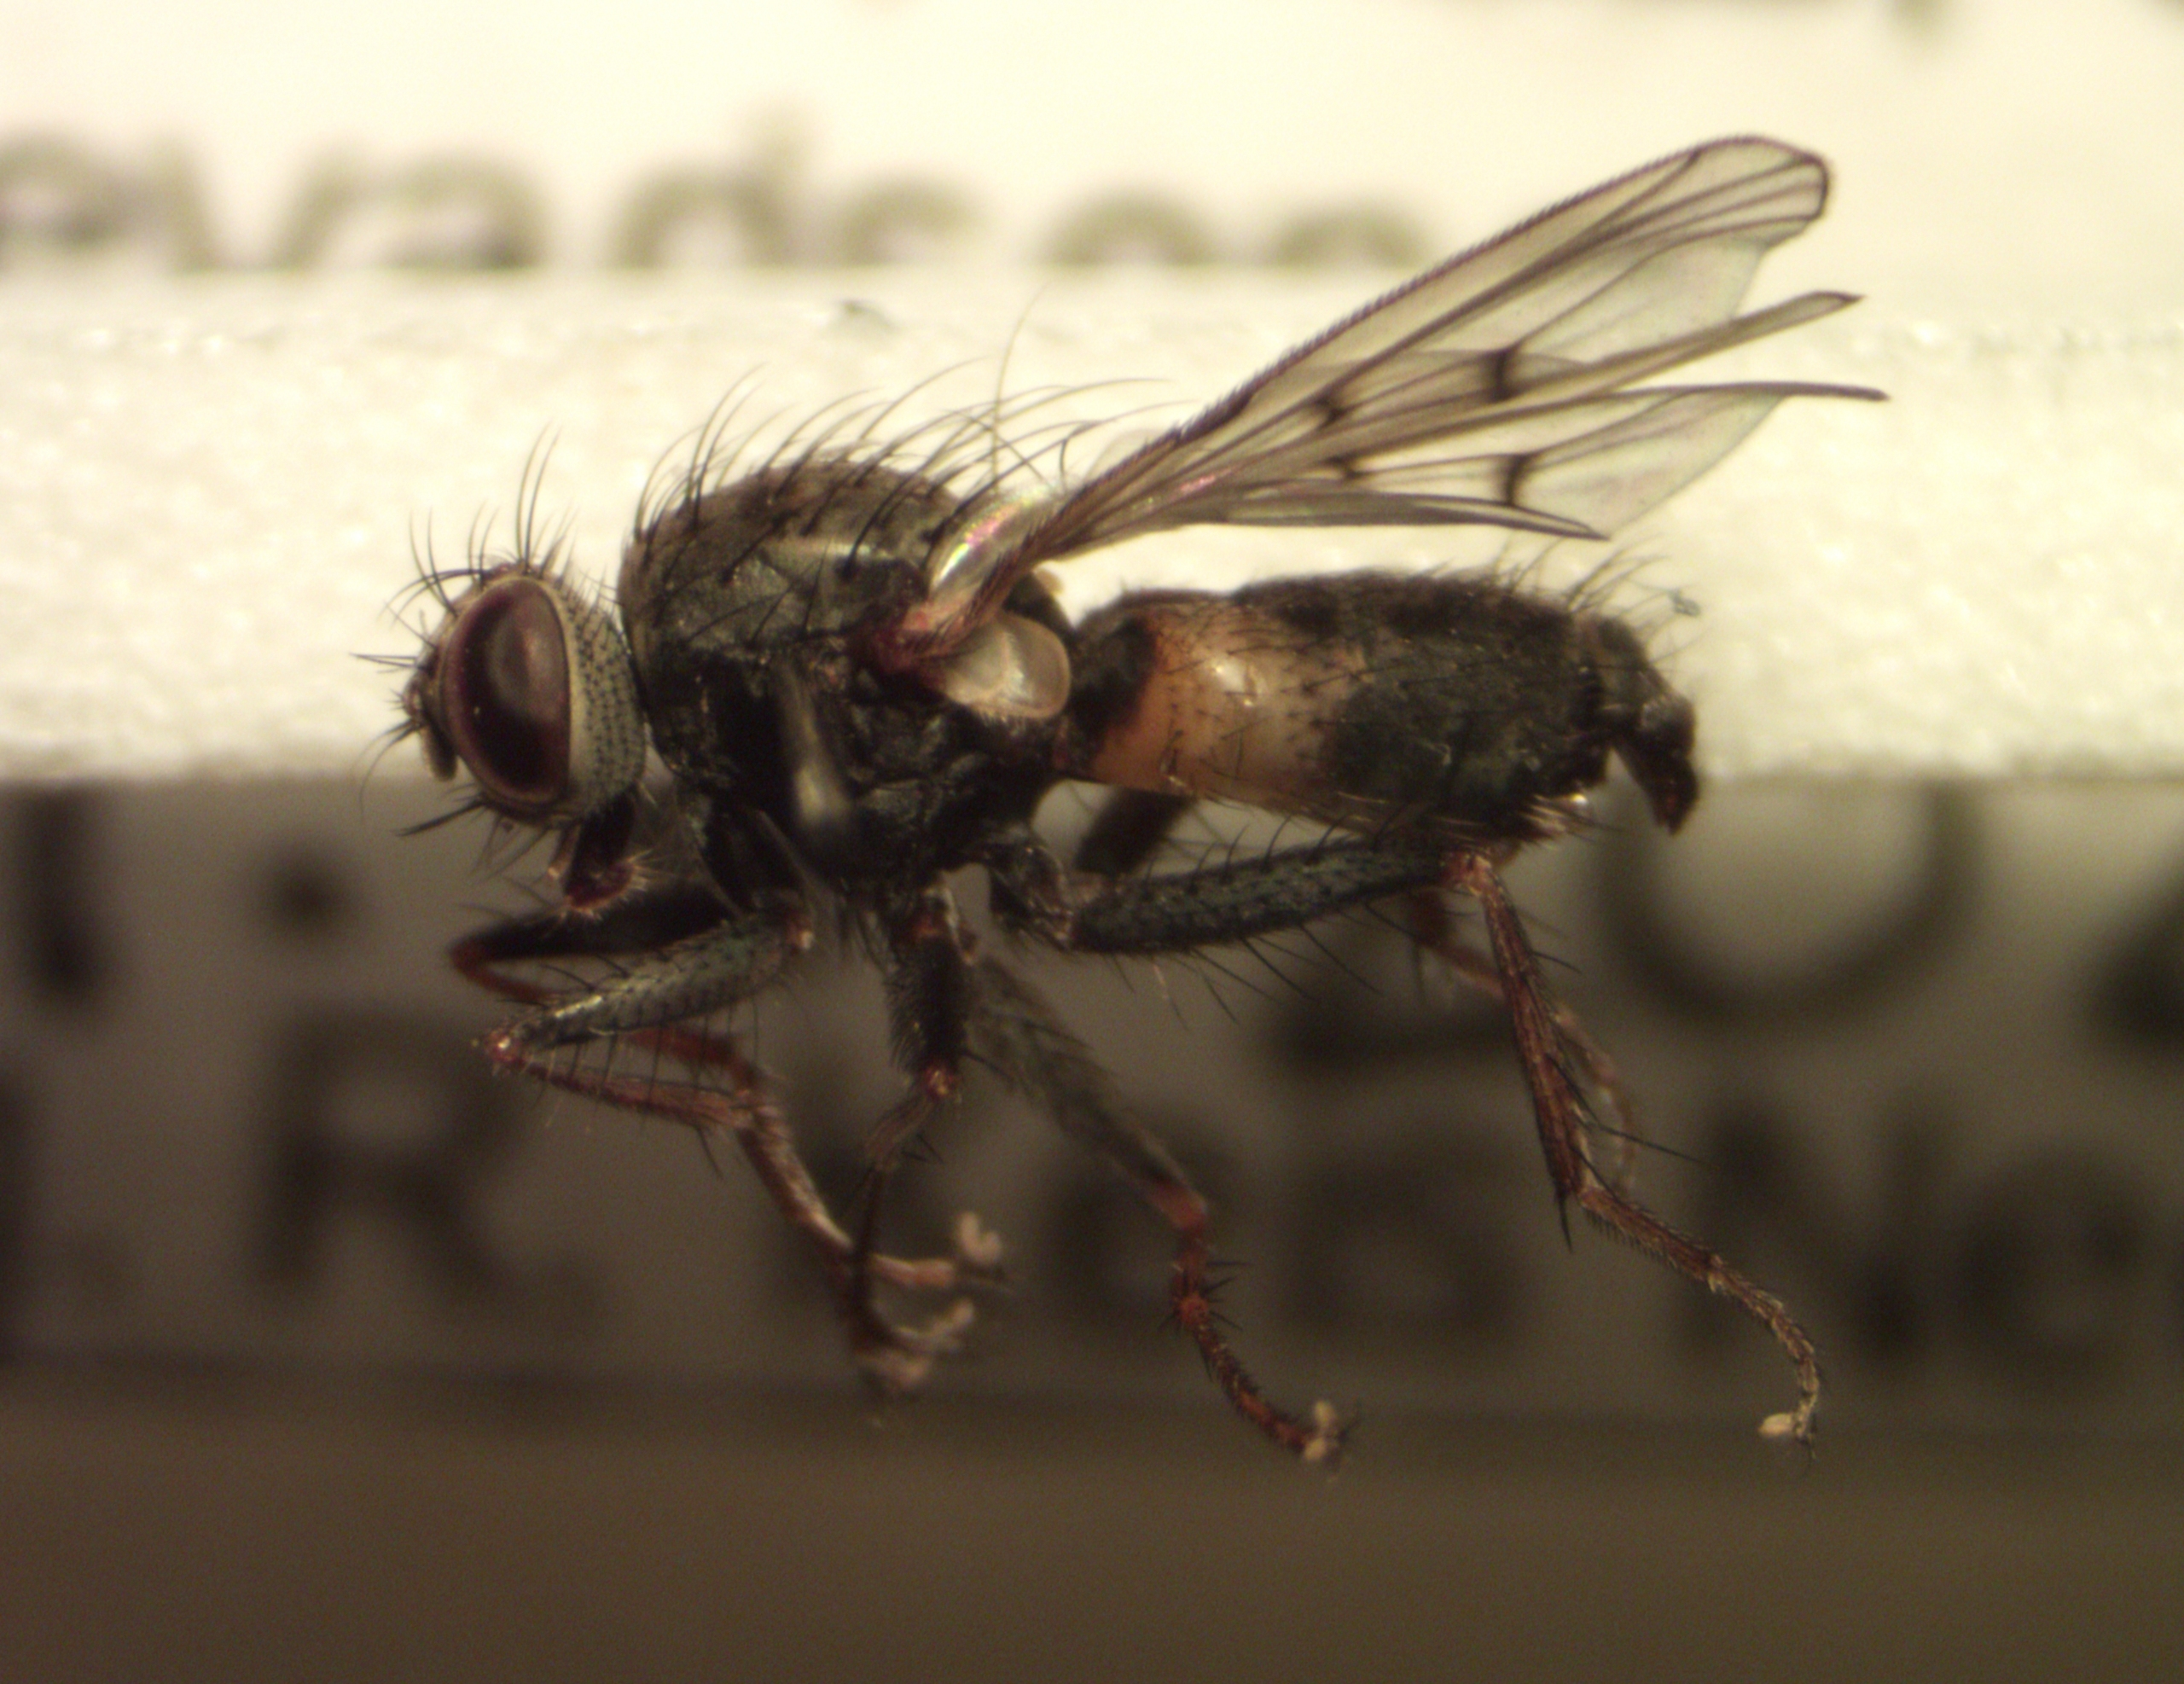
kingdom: Animalia
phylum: Arthropoda
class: Insecta
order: Diptera
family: Muscidae
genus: Caricea
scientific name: Caricea falculata
